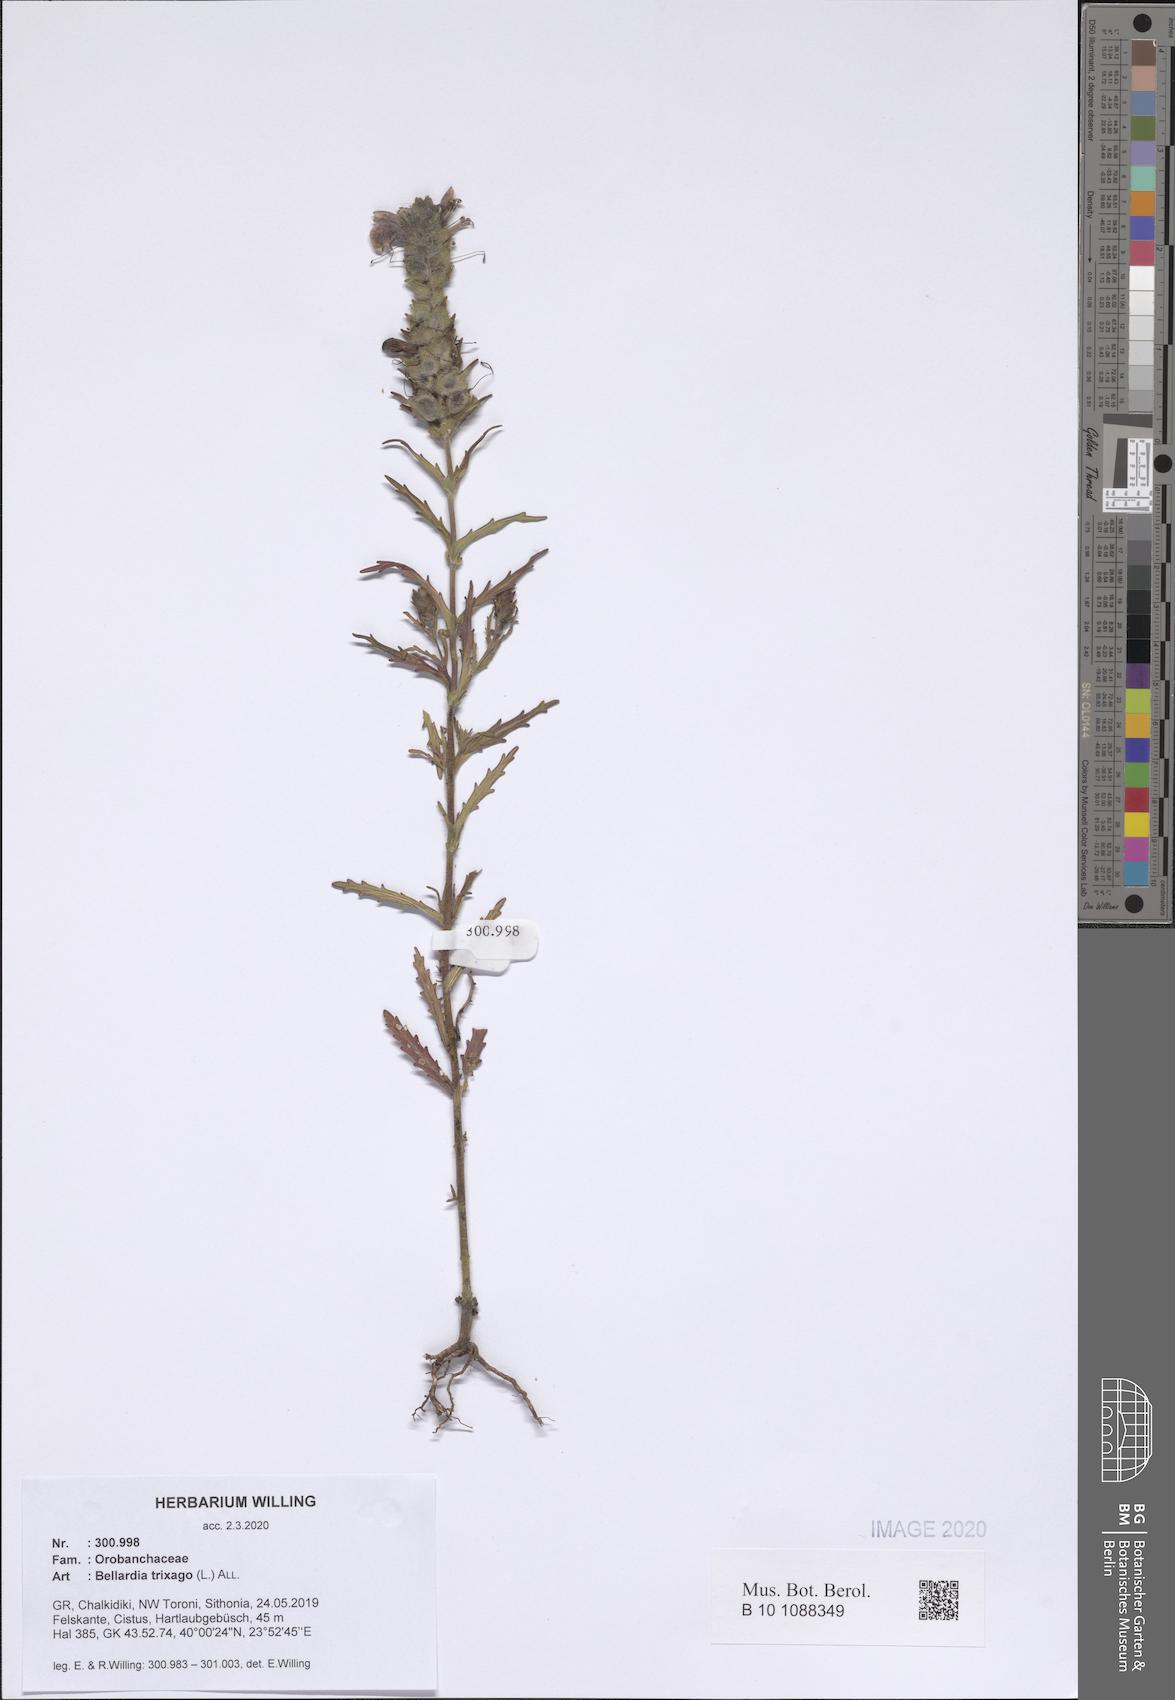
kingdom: Plantae
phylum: Tracheophyta
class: Magnoliopsida
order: Lamiales
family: Orobanchaceae
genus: Bellardia
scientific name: Bellardia trixago
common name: Mediterranean lineseed
